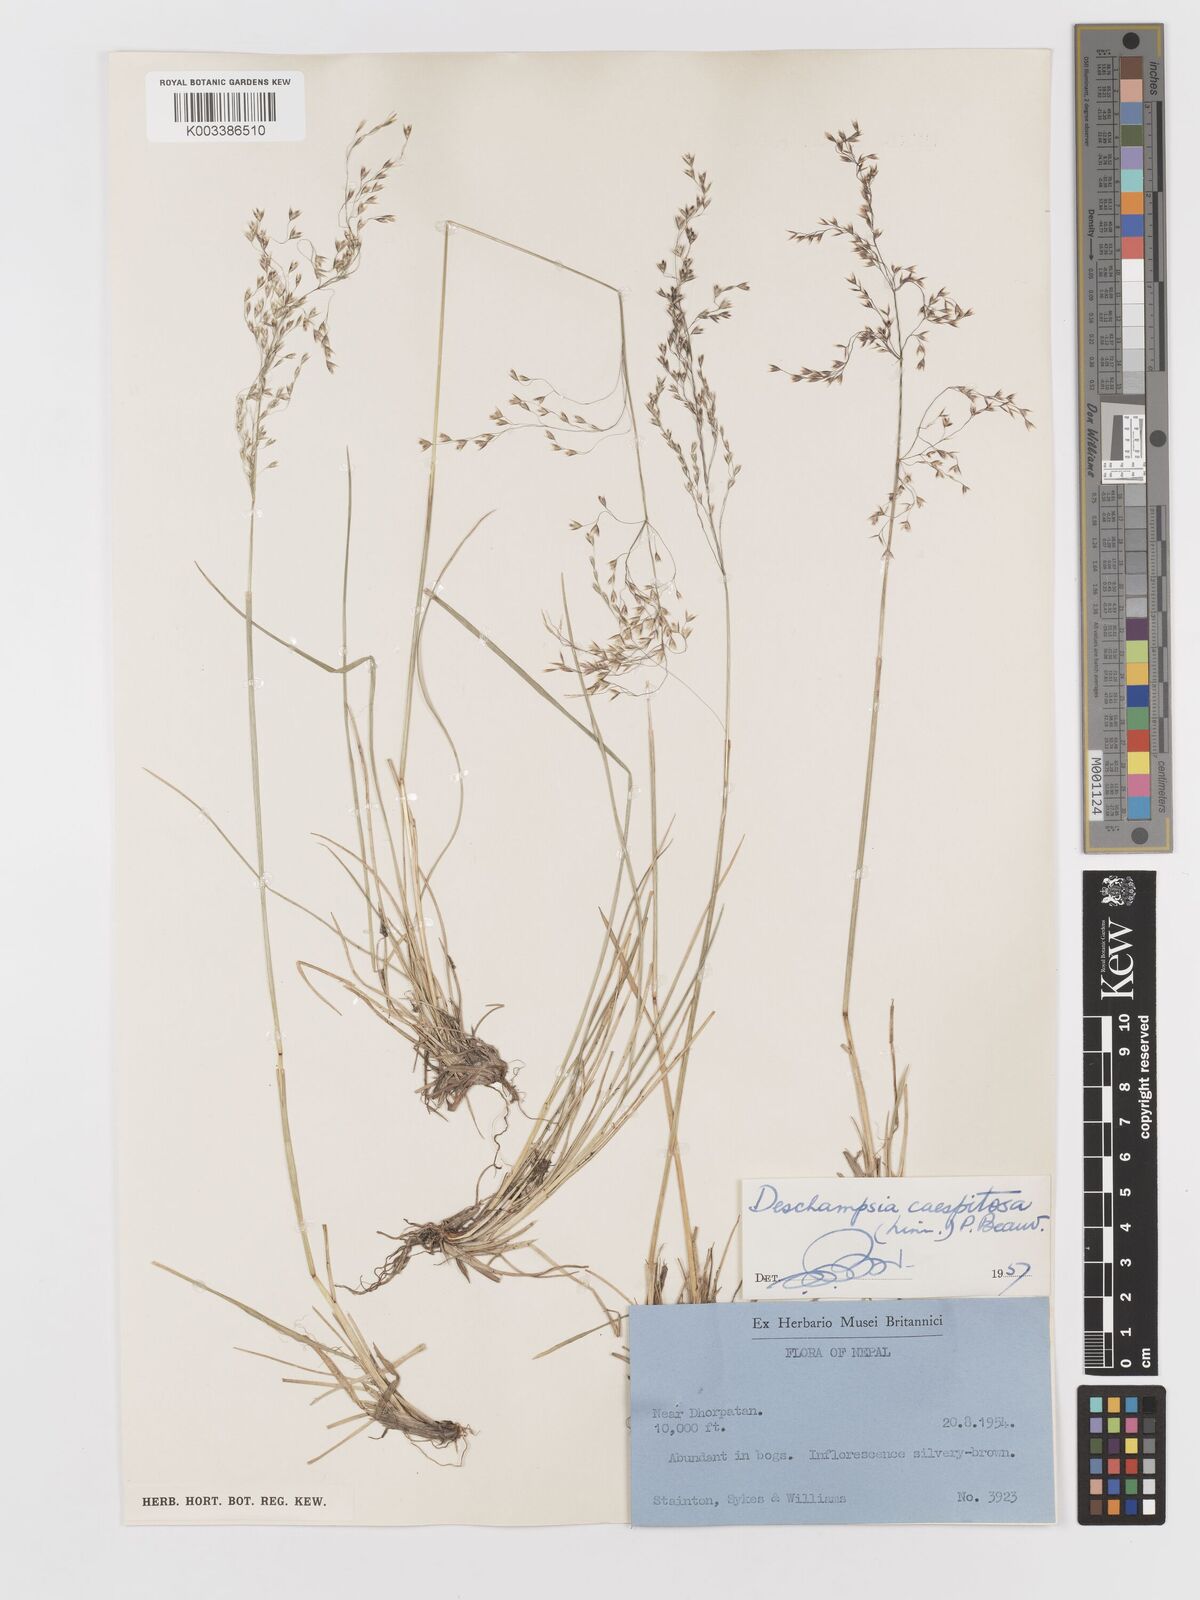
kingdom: Plantae
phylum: Tracheophyta
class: Liliopsida
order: Poales
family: Poaceae
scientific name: Poaceae
